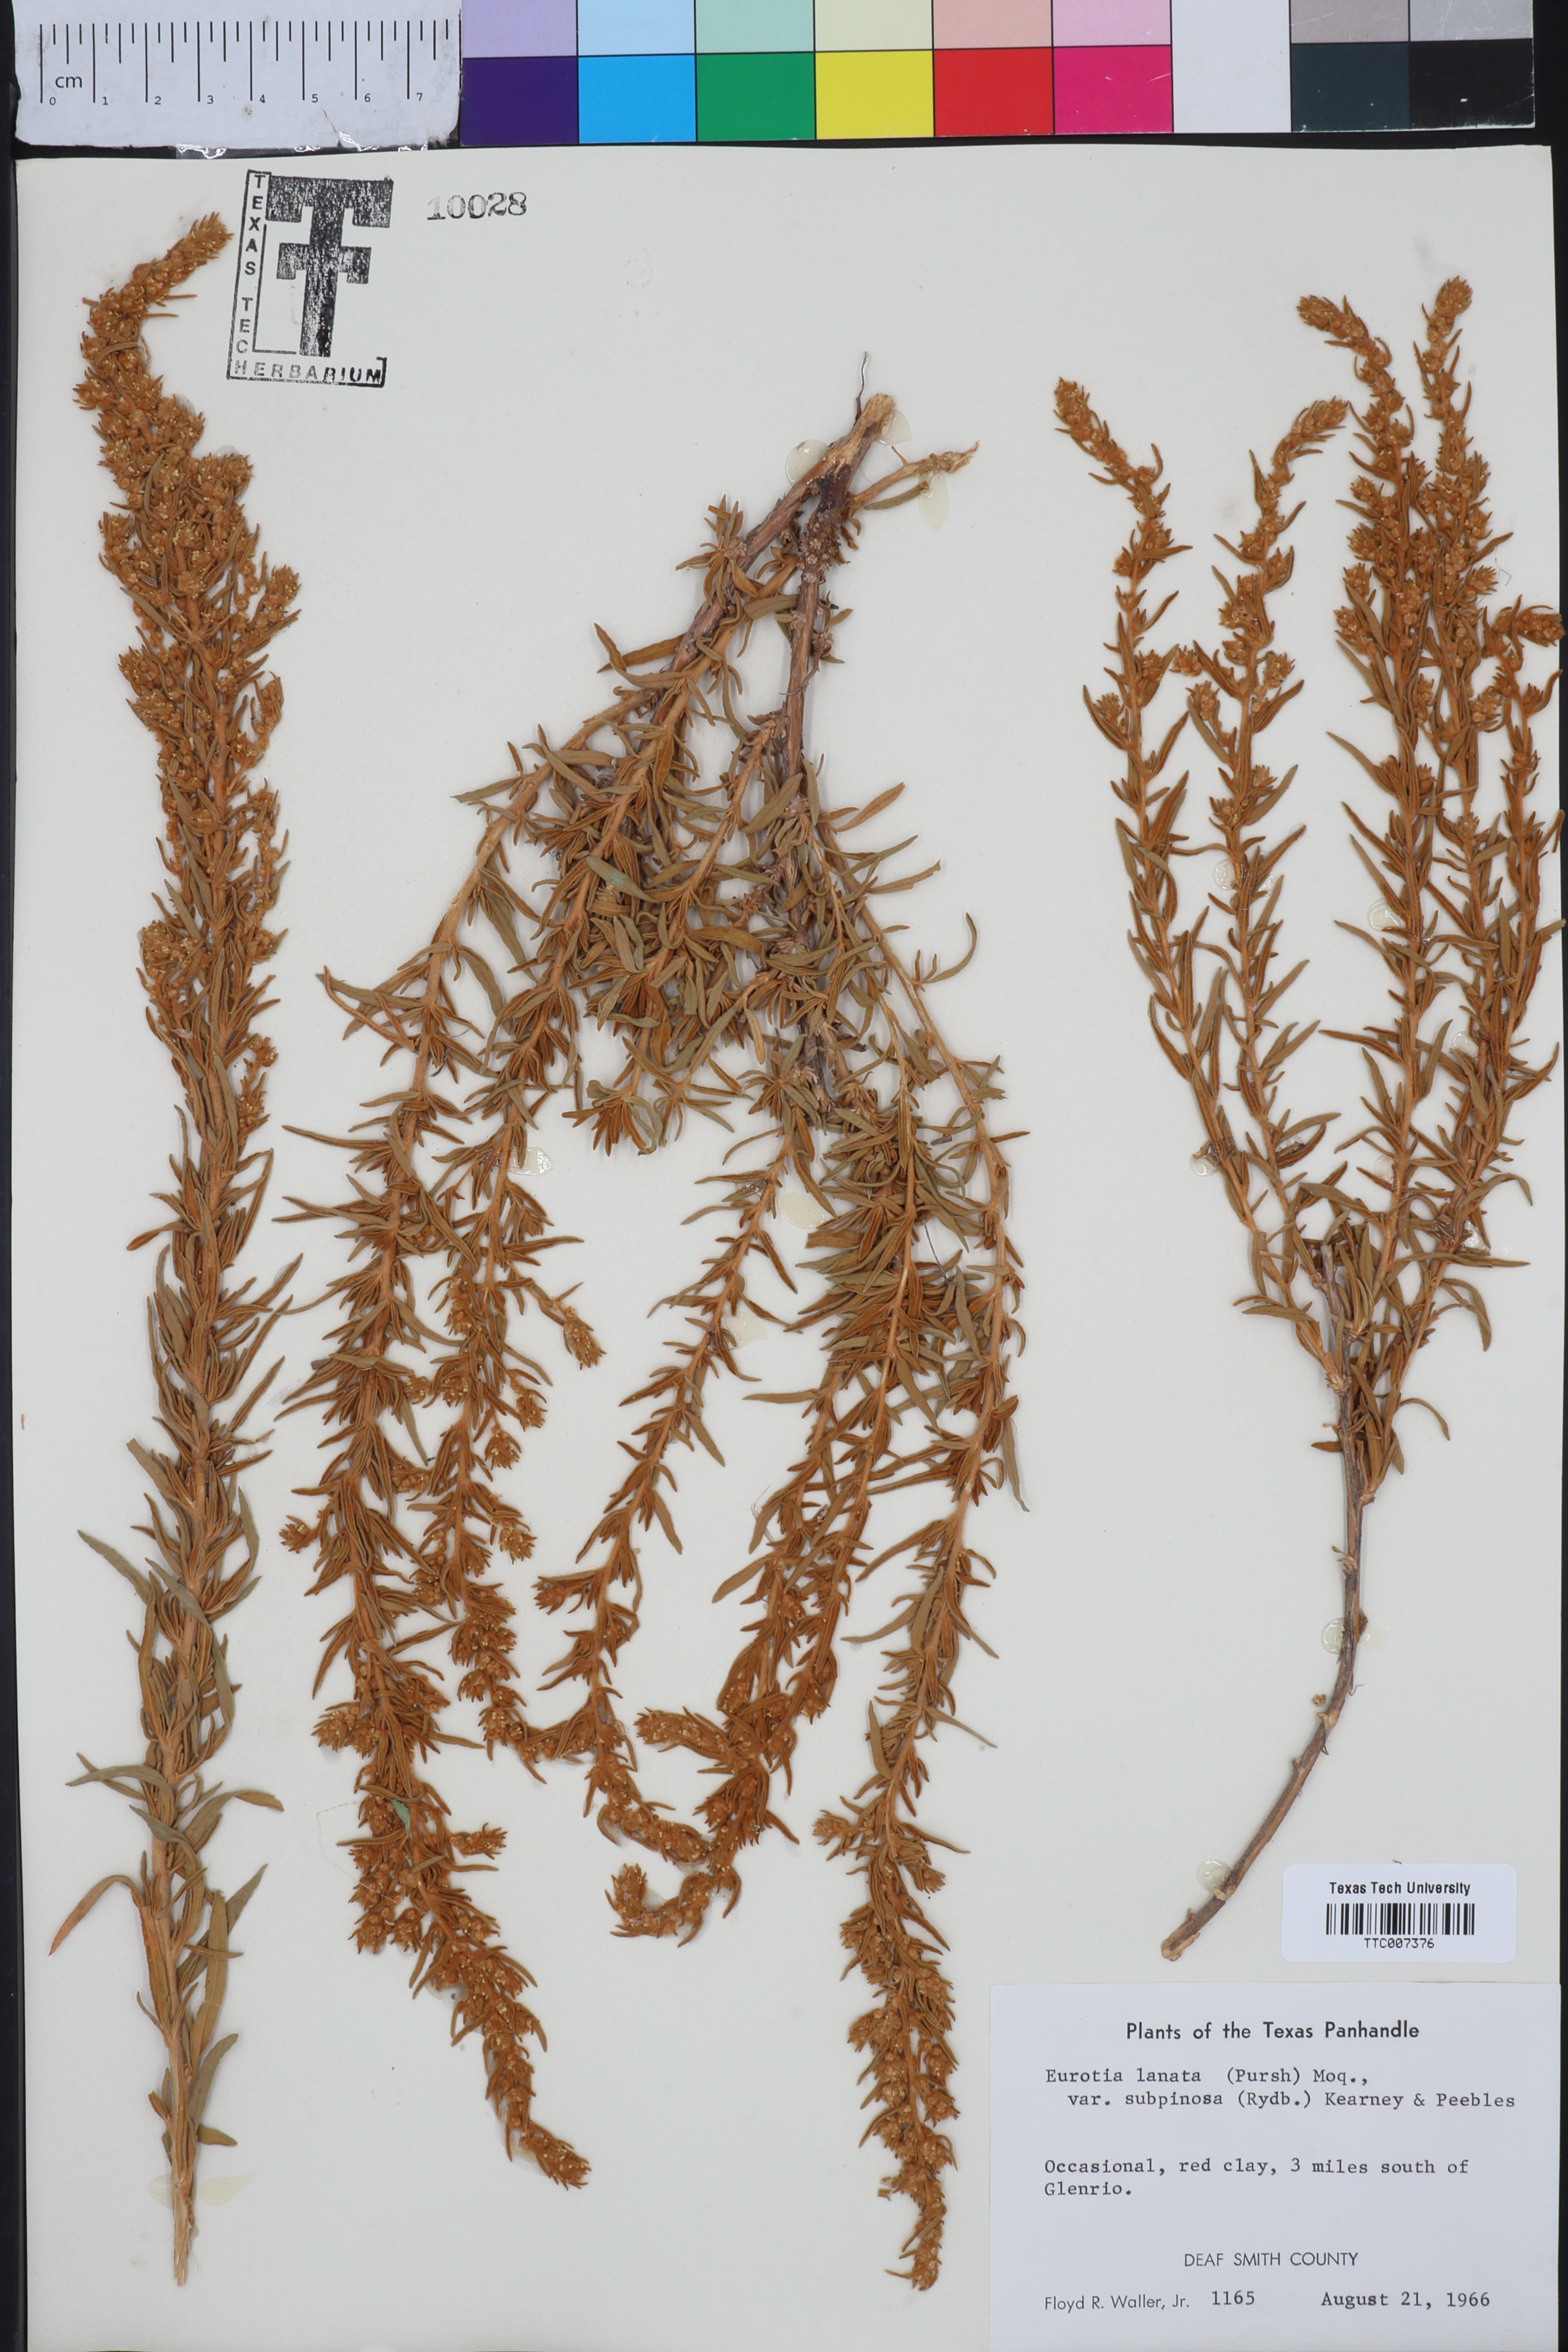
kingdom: Plantae
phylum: Tracheophyta
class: Magnoliopsida
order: Caryophyllales
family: Amaranthaceae
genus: Krascheninnikovia
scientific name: Krascheninnikovia lanata
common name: Winterfat
